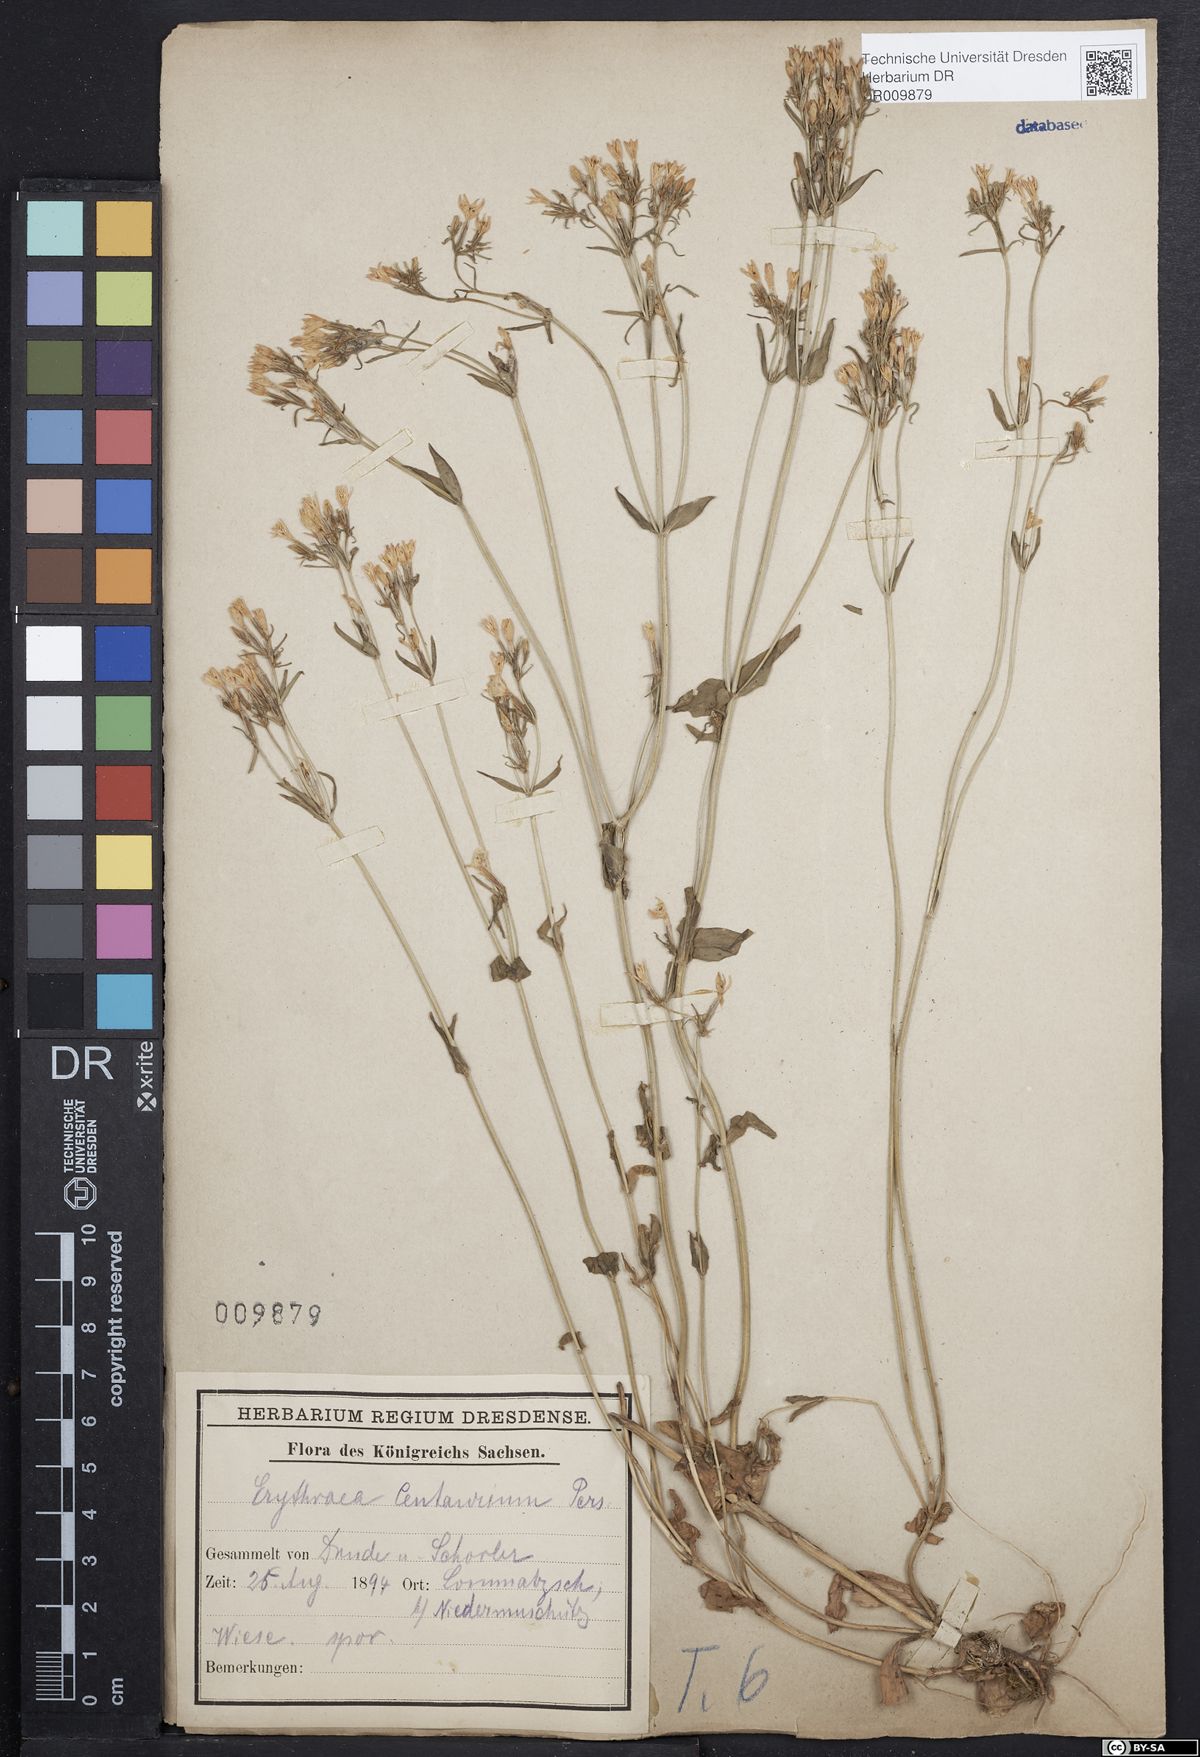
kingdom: Plantae
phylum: Tracheophyta
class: Magnoliopsida
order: Gentianales
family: Gentianaceae
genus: Centaurium
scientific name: Centaurium erythraea
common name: Common centaury
